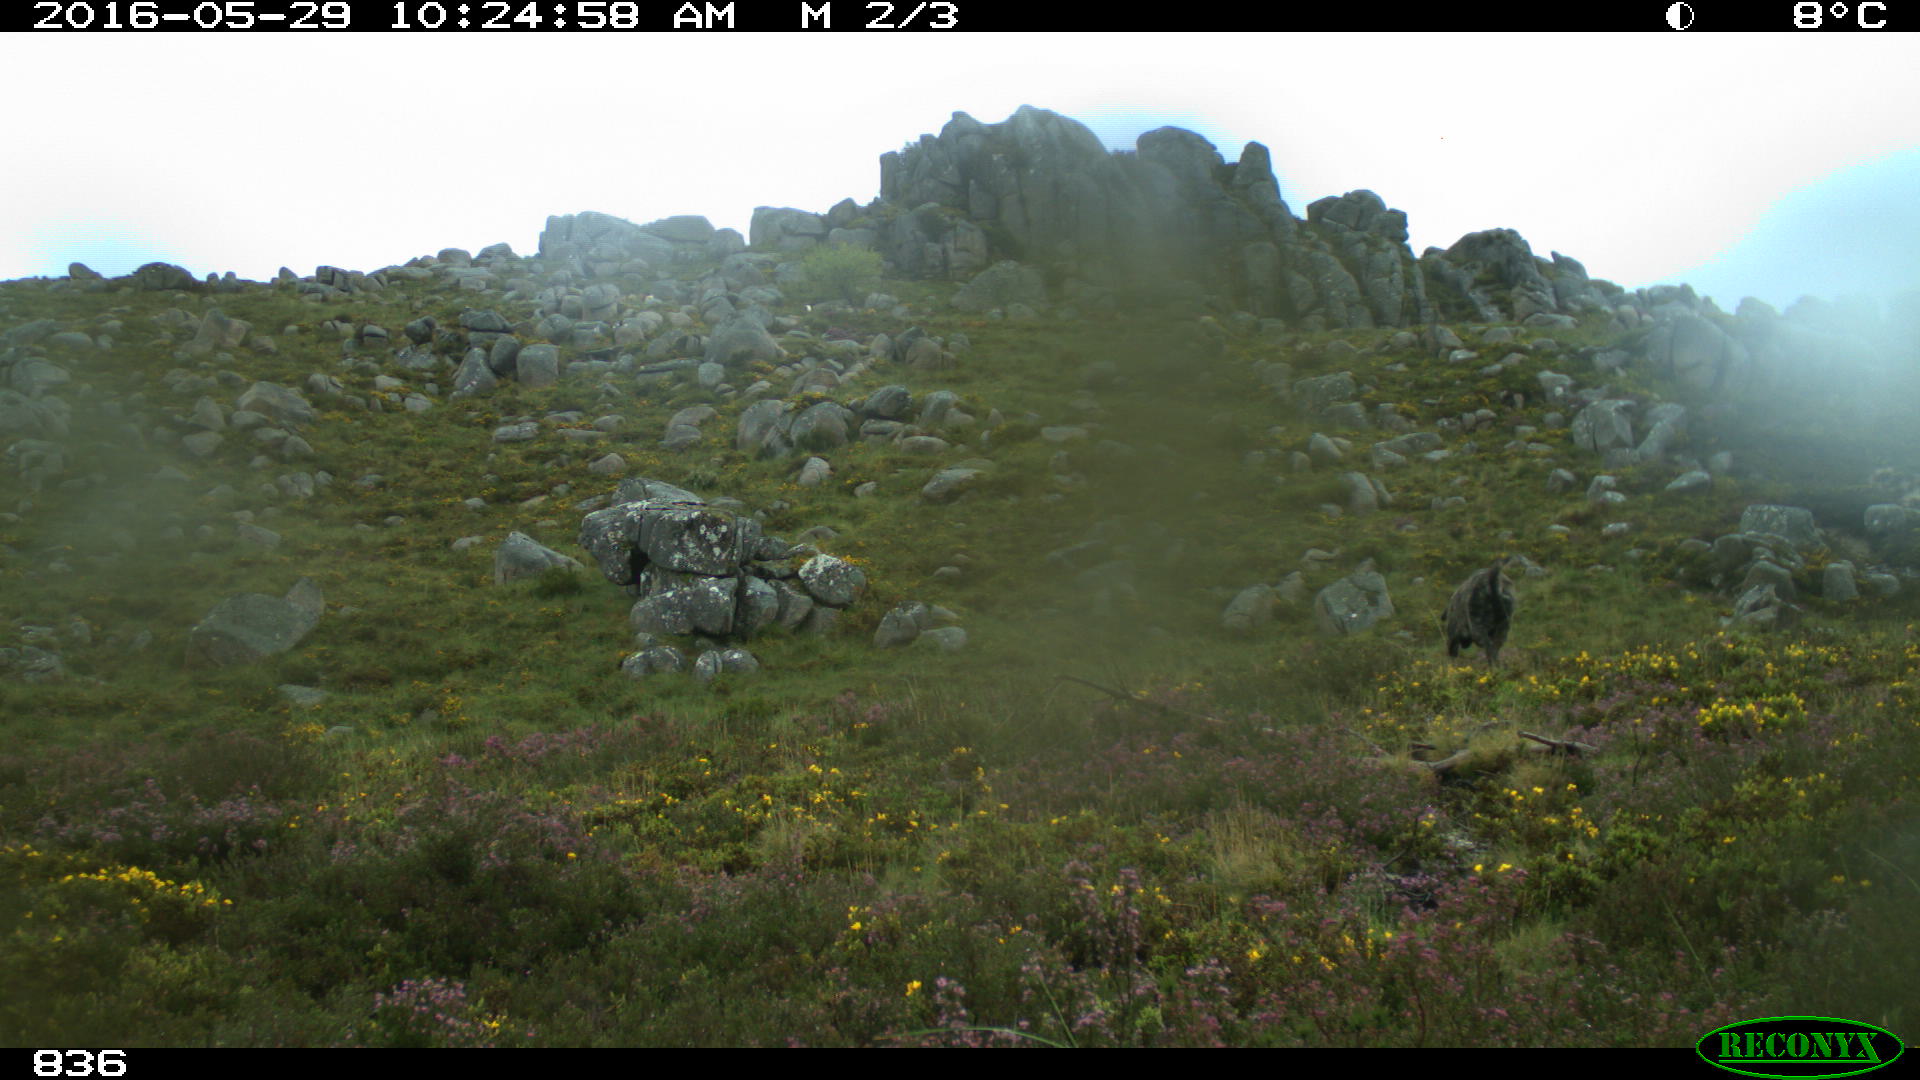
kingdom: Animalia
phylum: Chordata
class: Mammalia
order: Carnivora
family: Canidae
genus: Canis
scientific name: Canis lupus
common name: Gray wolf
